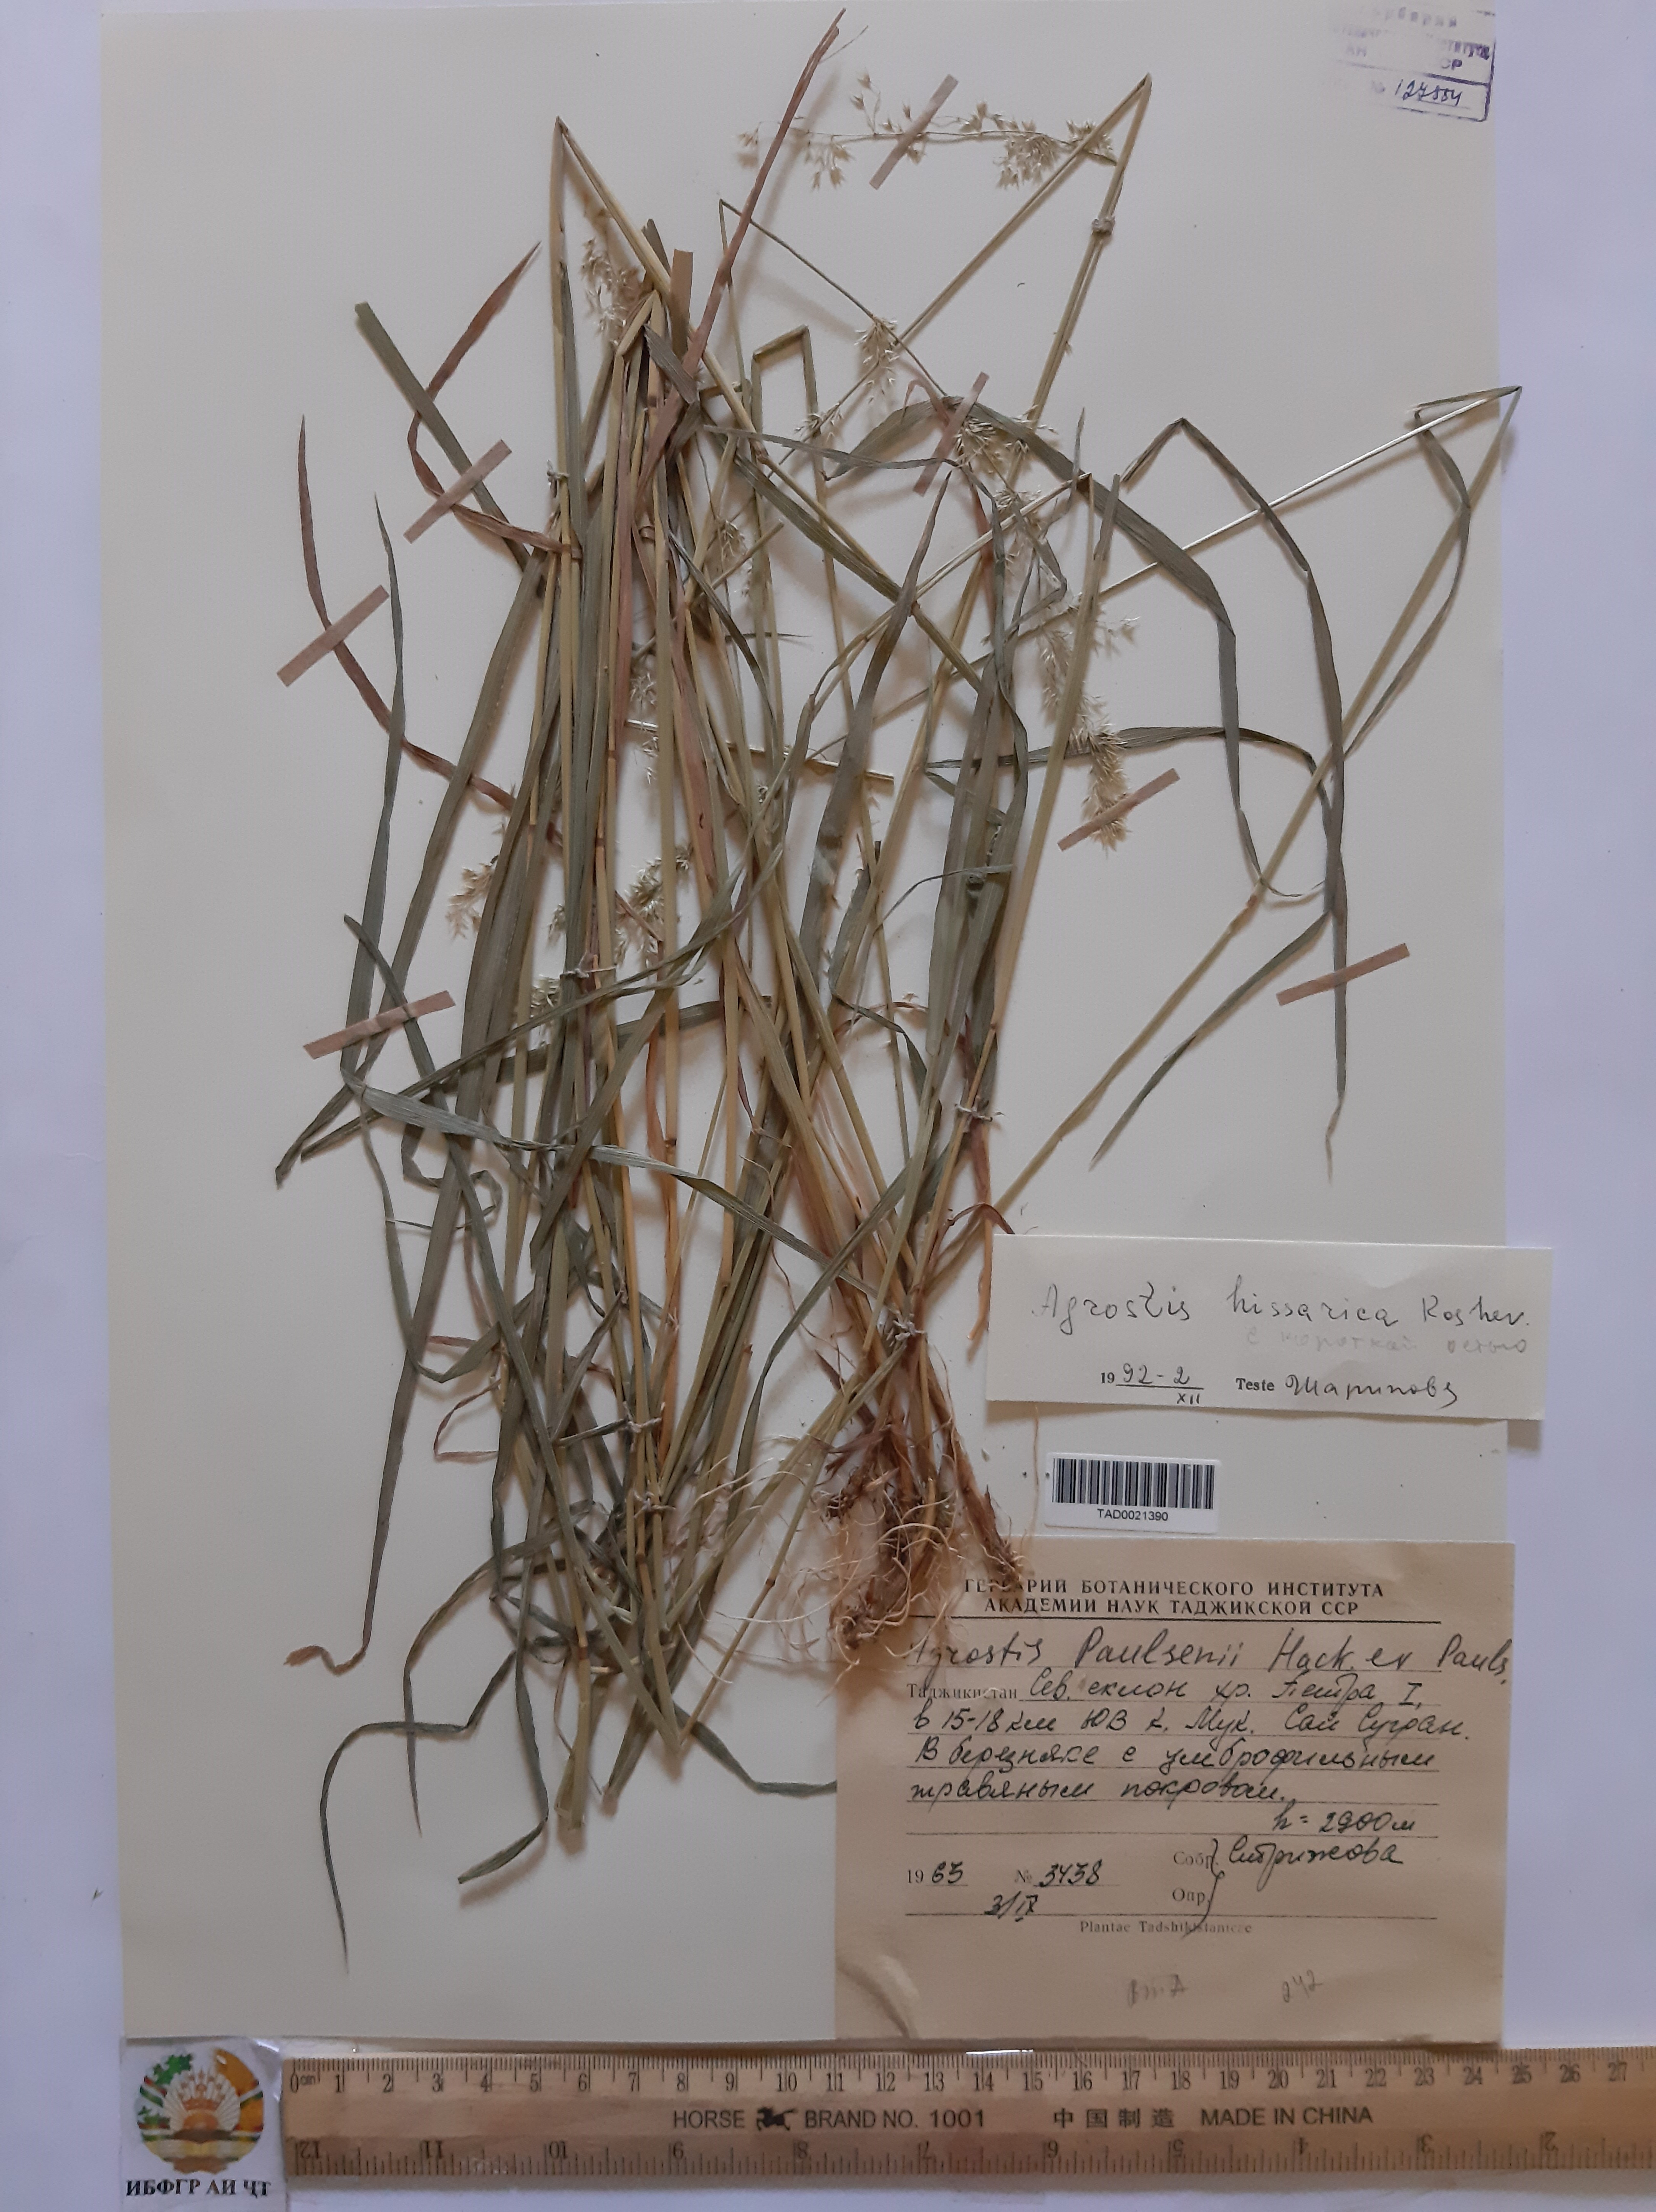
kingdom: Plantae
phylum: Tracheophyta
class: Liliopsida
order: Poales
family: Poaceae
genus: Polypogon
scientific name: Polypogon hissaricus
